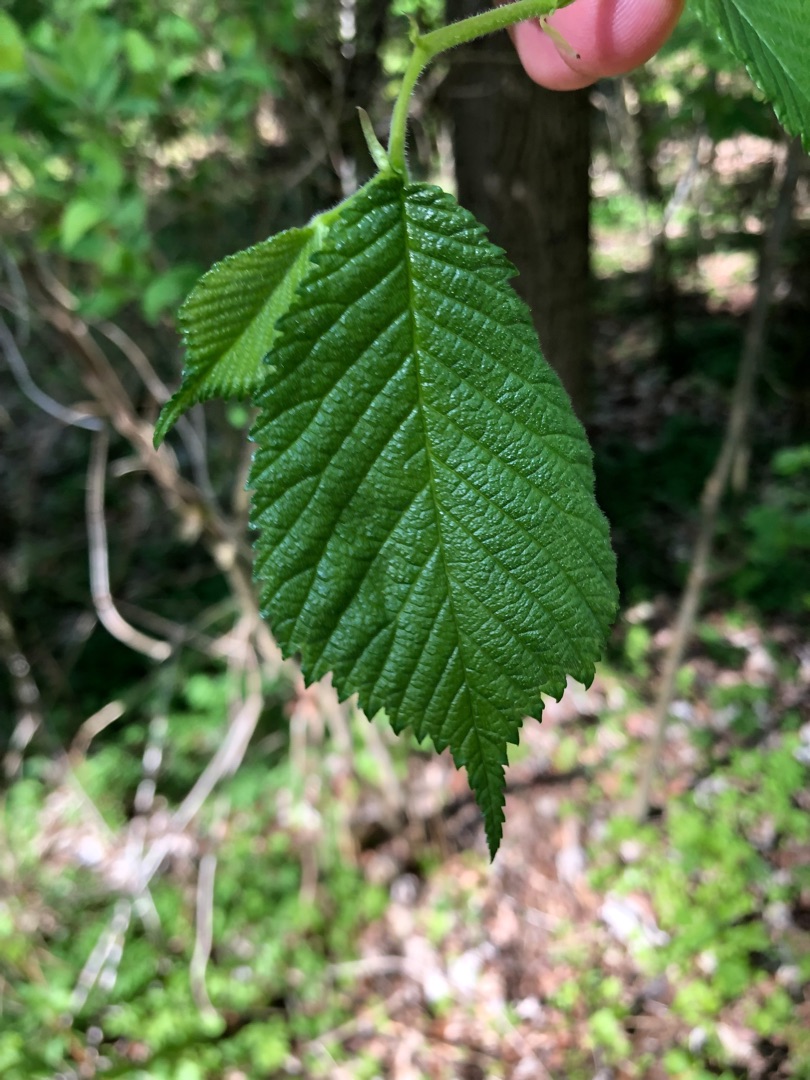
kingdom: Plantae
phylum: Tracheophyta
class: Magnoliopsida
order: Rosales
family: Ulmaceae
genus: Ulmus
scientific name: Ulmus glabra
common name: Skov-elm/storbladet elm
